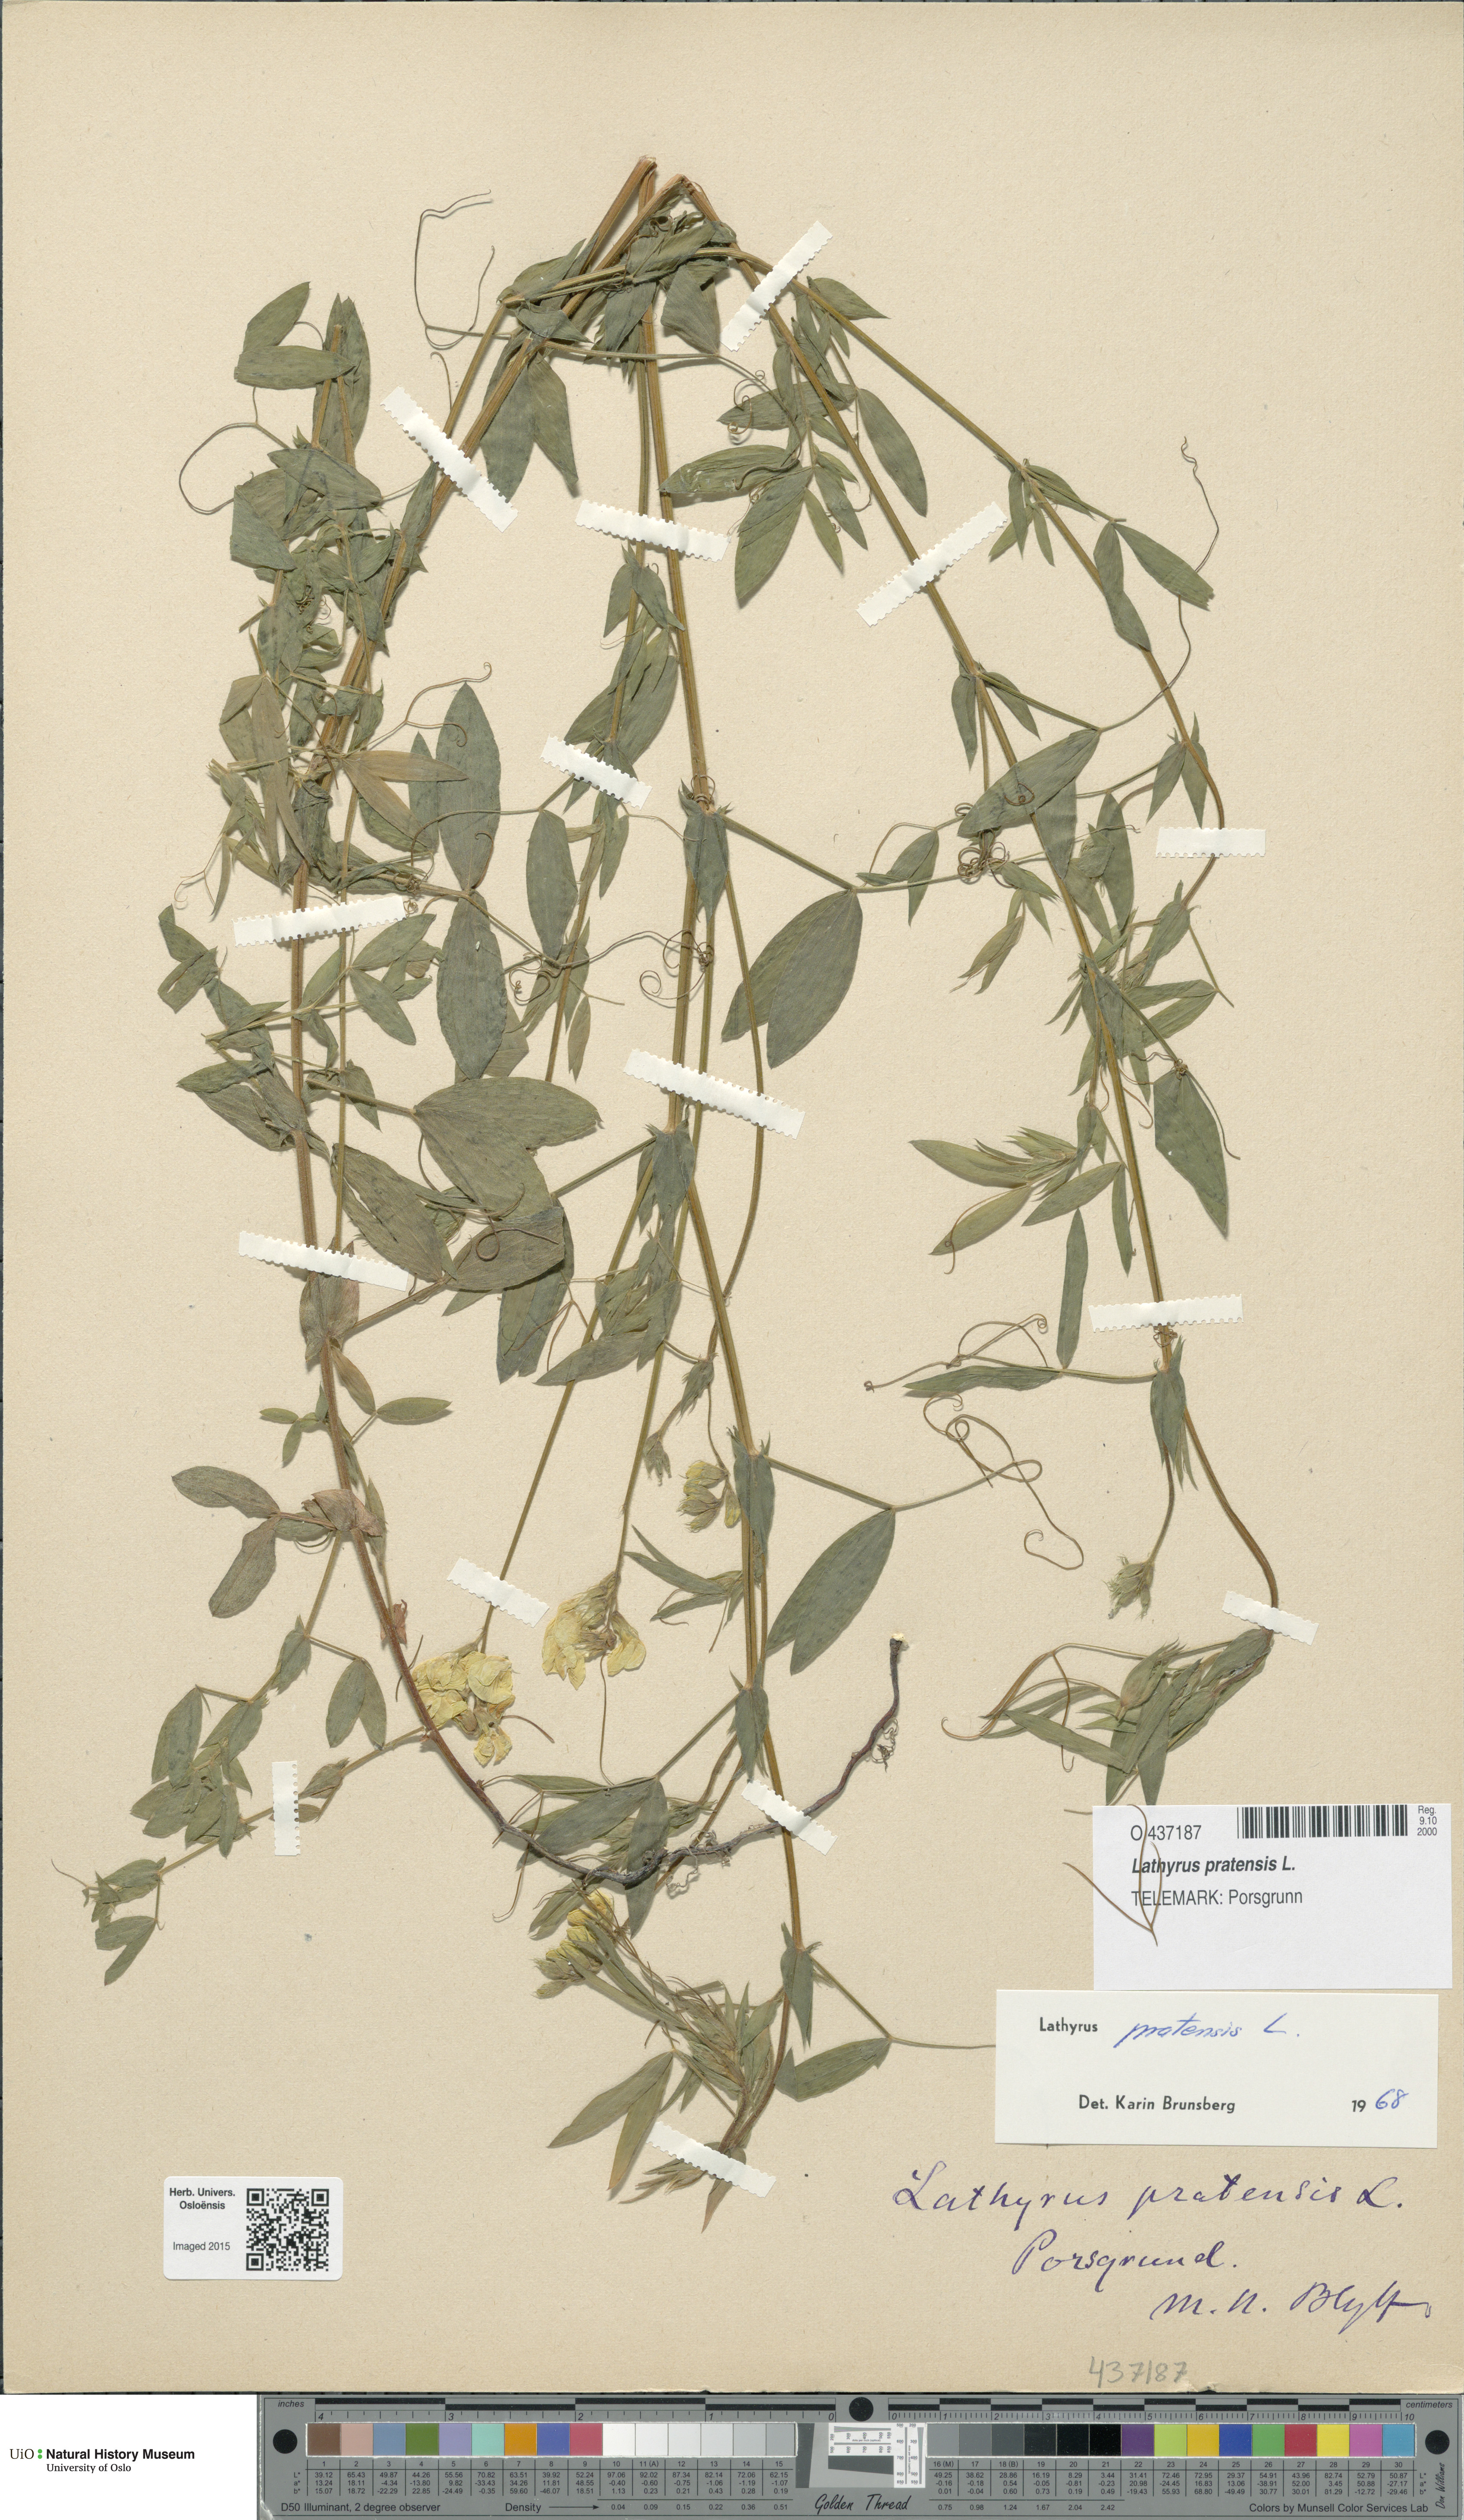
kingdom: Plantae
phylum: Tracheophyta
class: Magnoliopsida
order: Fabales
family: Fabaceae
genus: Lathyrus
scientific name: Lathyrus pratensis
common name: Meadow vetchling
